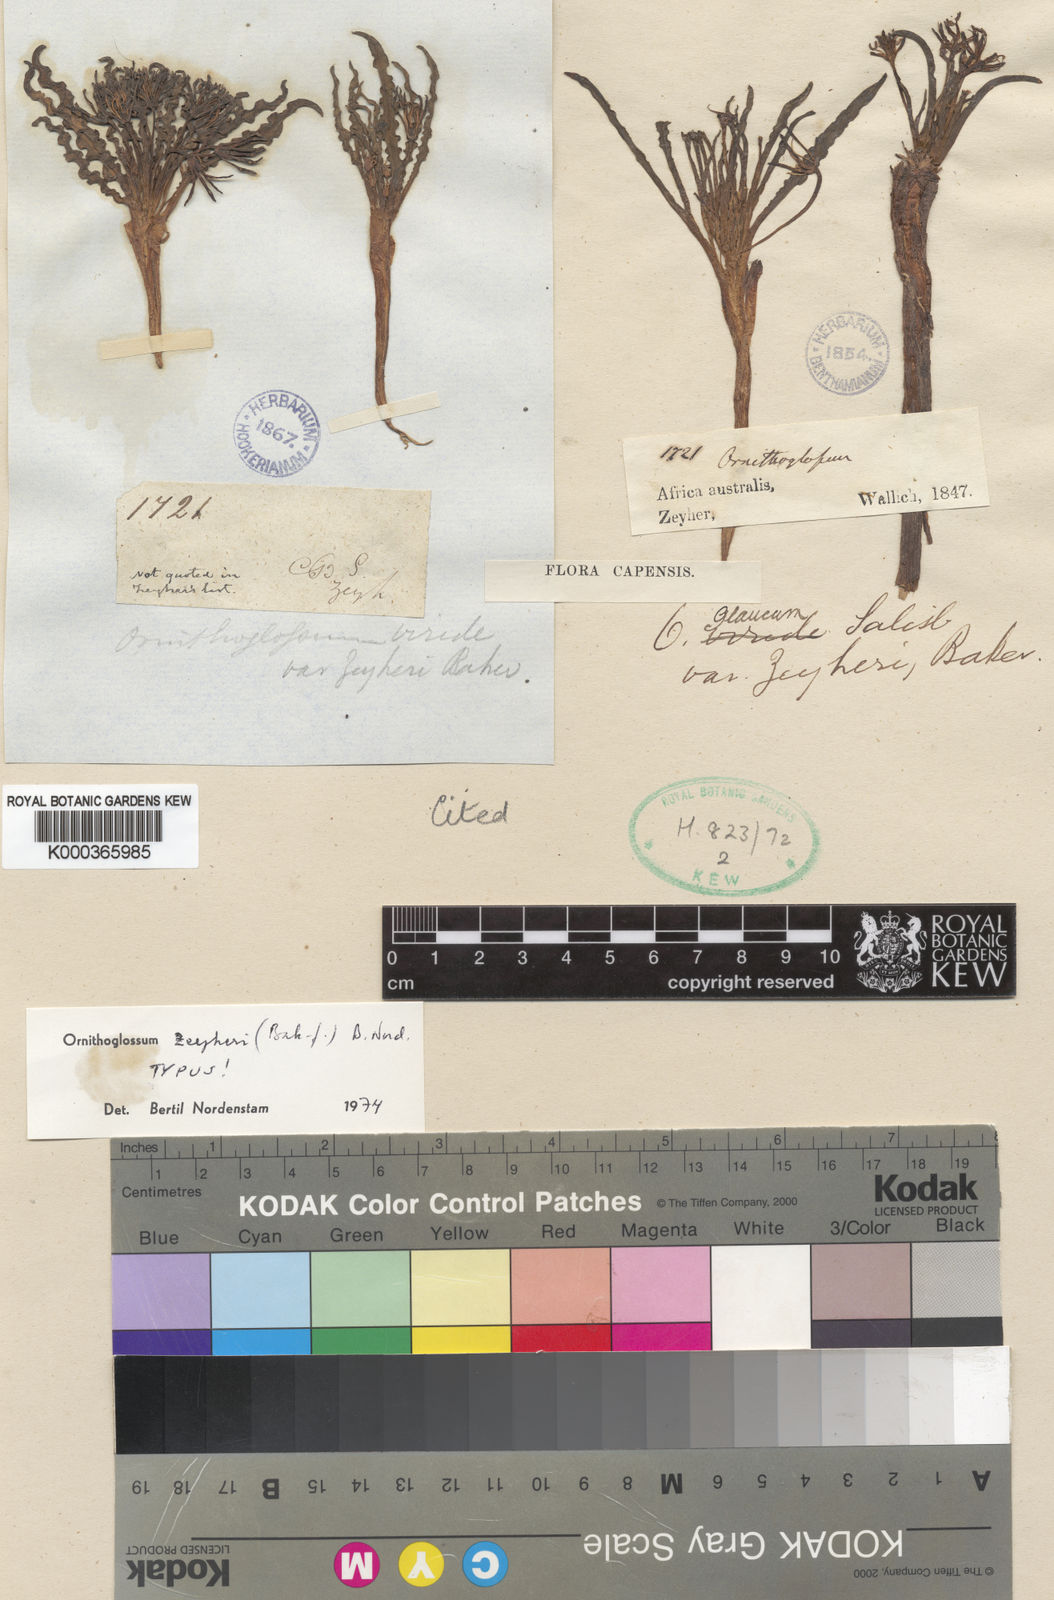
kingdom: Plantae
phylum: Tracheophyta
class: Liliopsida
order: Liliales
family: Colchicaceae
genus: Ornithoglossum
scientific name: Ornithoglossum zeyheri
